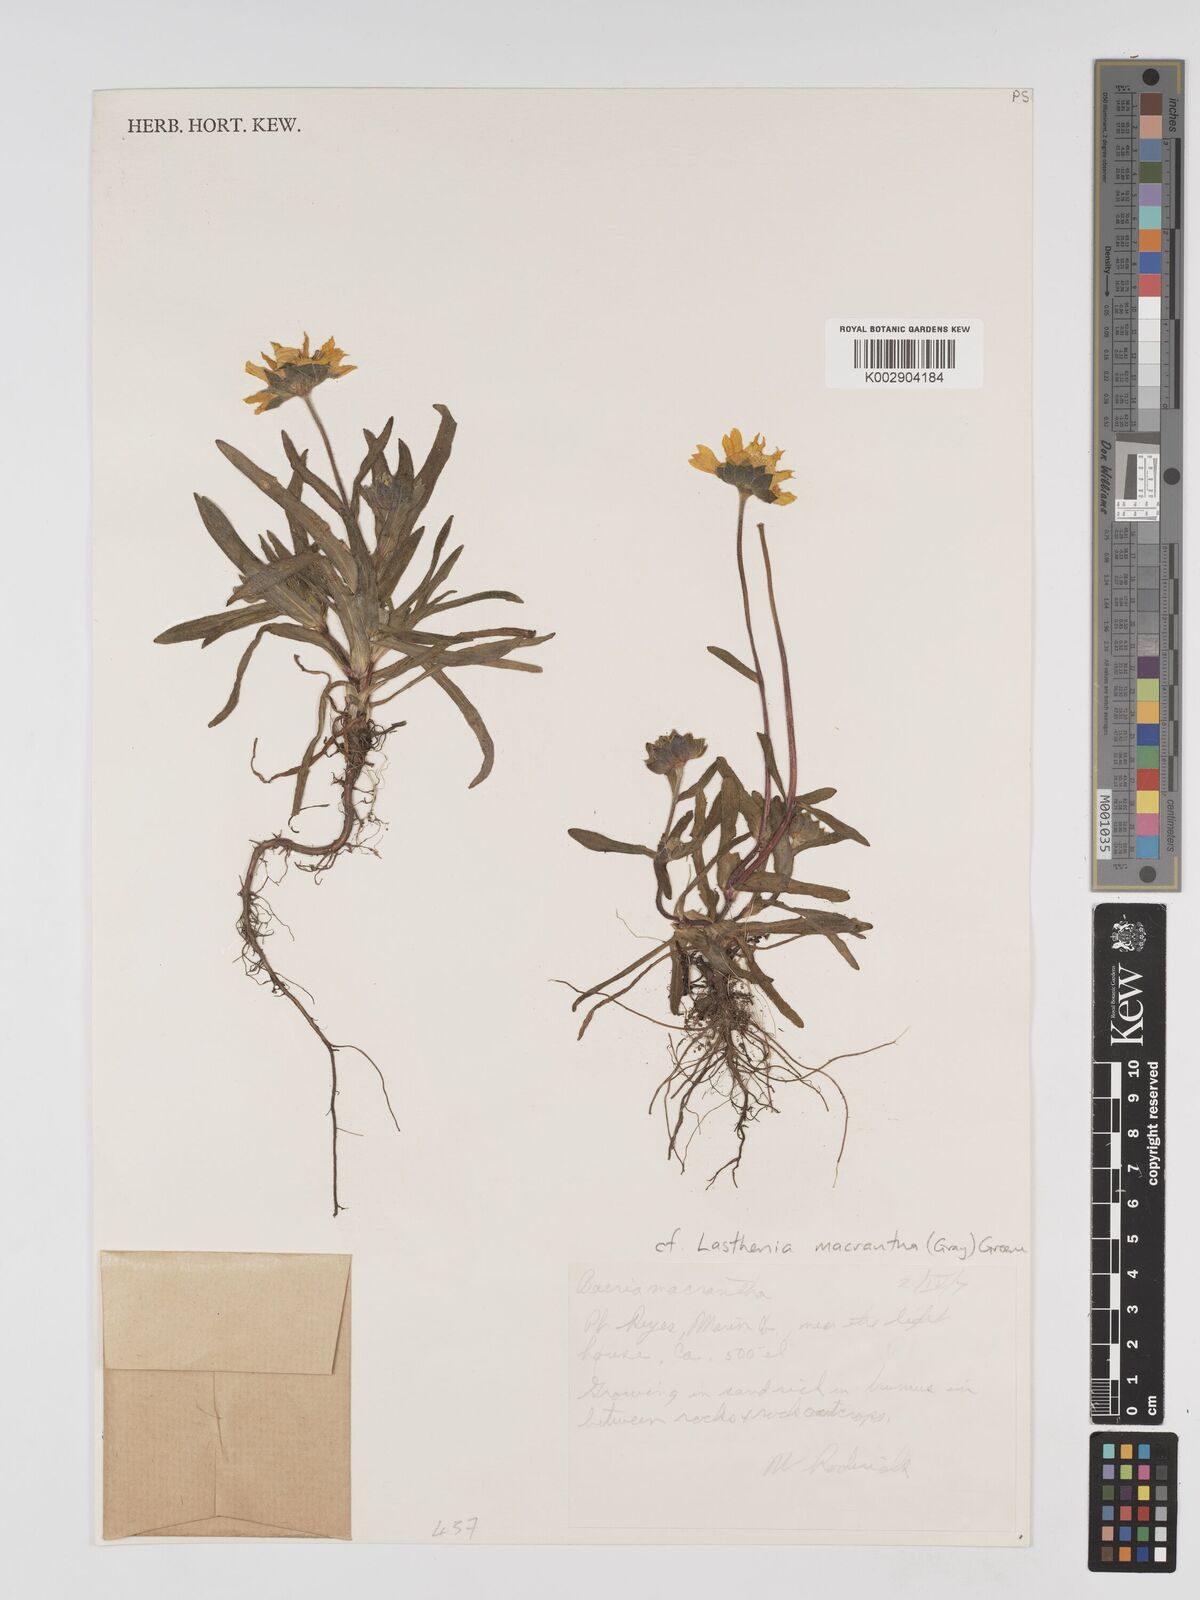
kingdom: Plantae
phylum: Tracheophyta
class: Magnoliopsida
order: Asterales
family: Asteraceae
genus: Lasthenia
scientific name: Lasthenia californica
